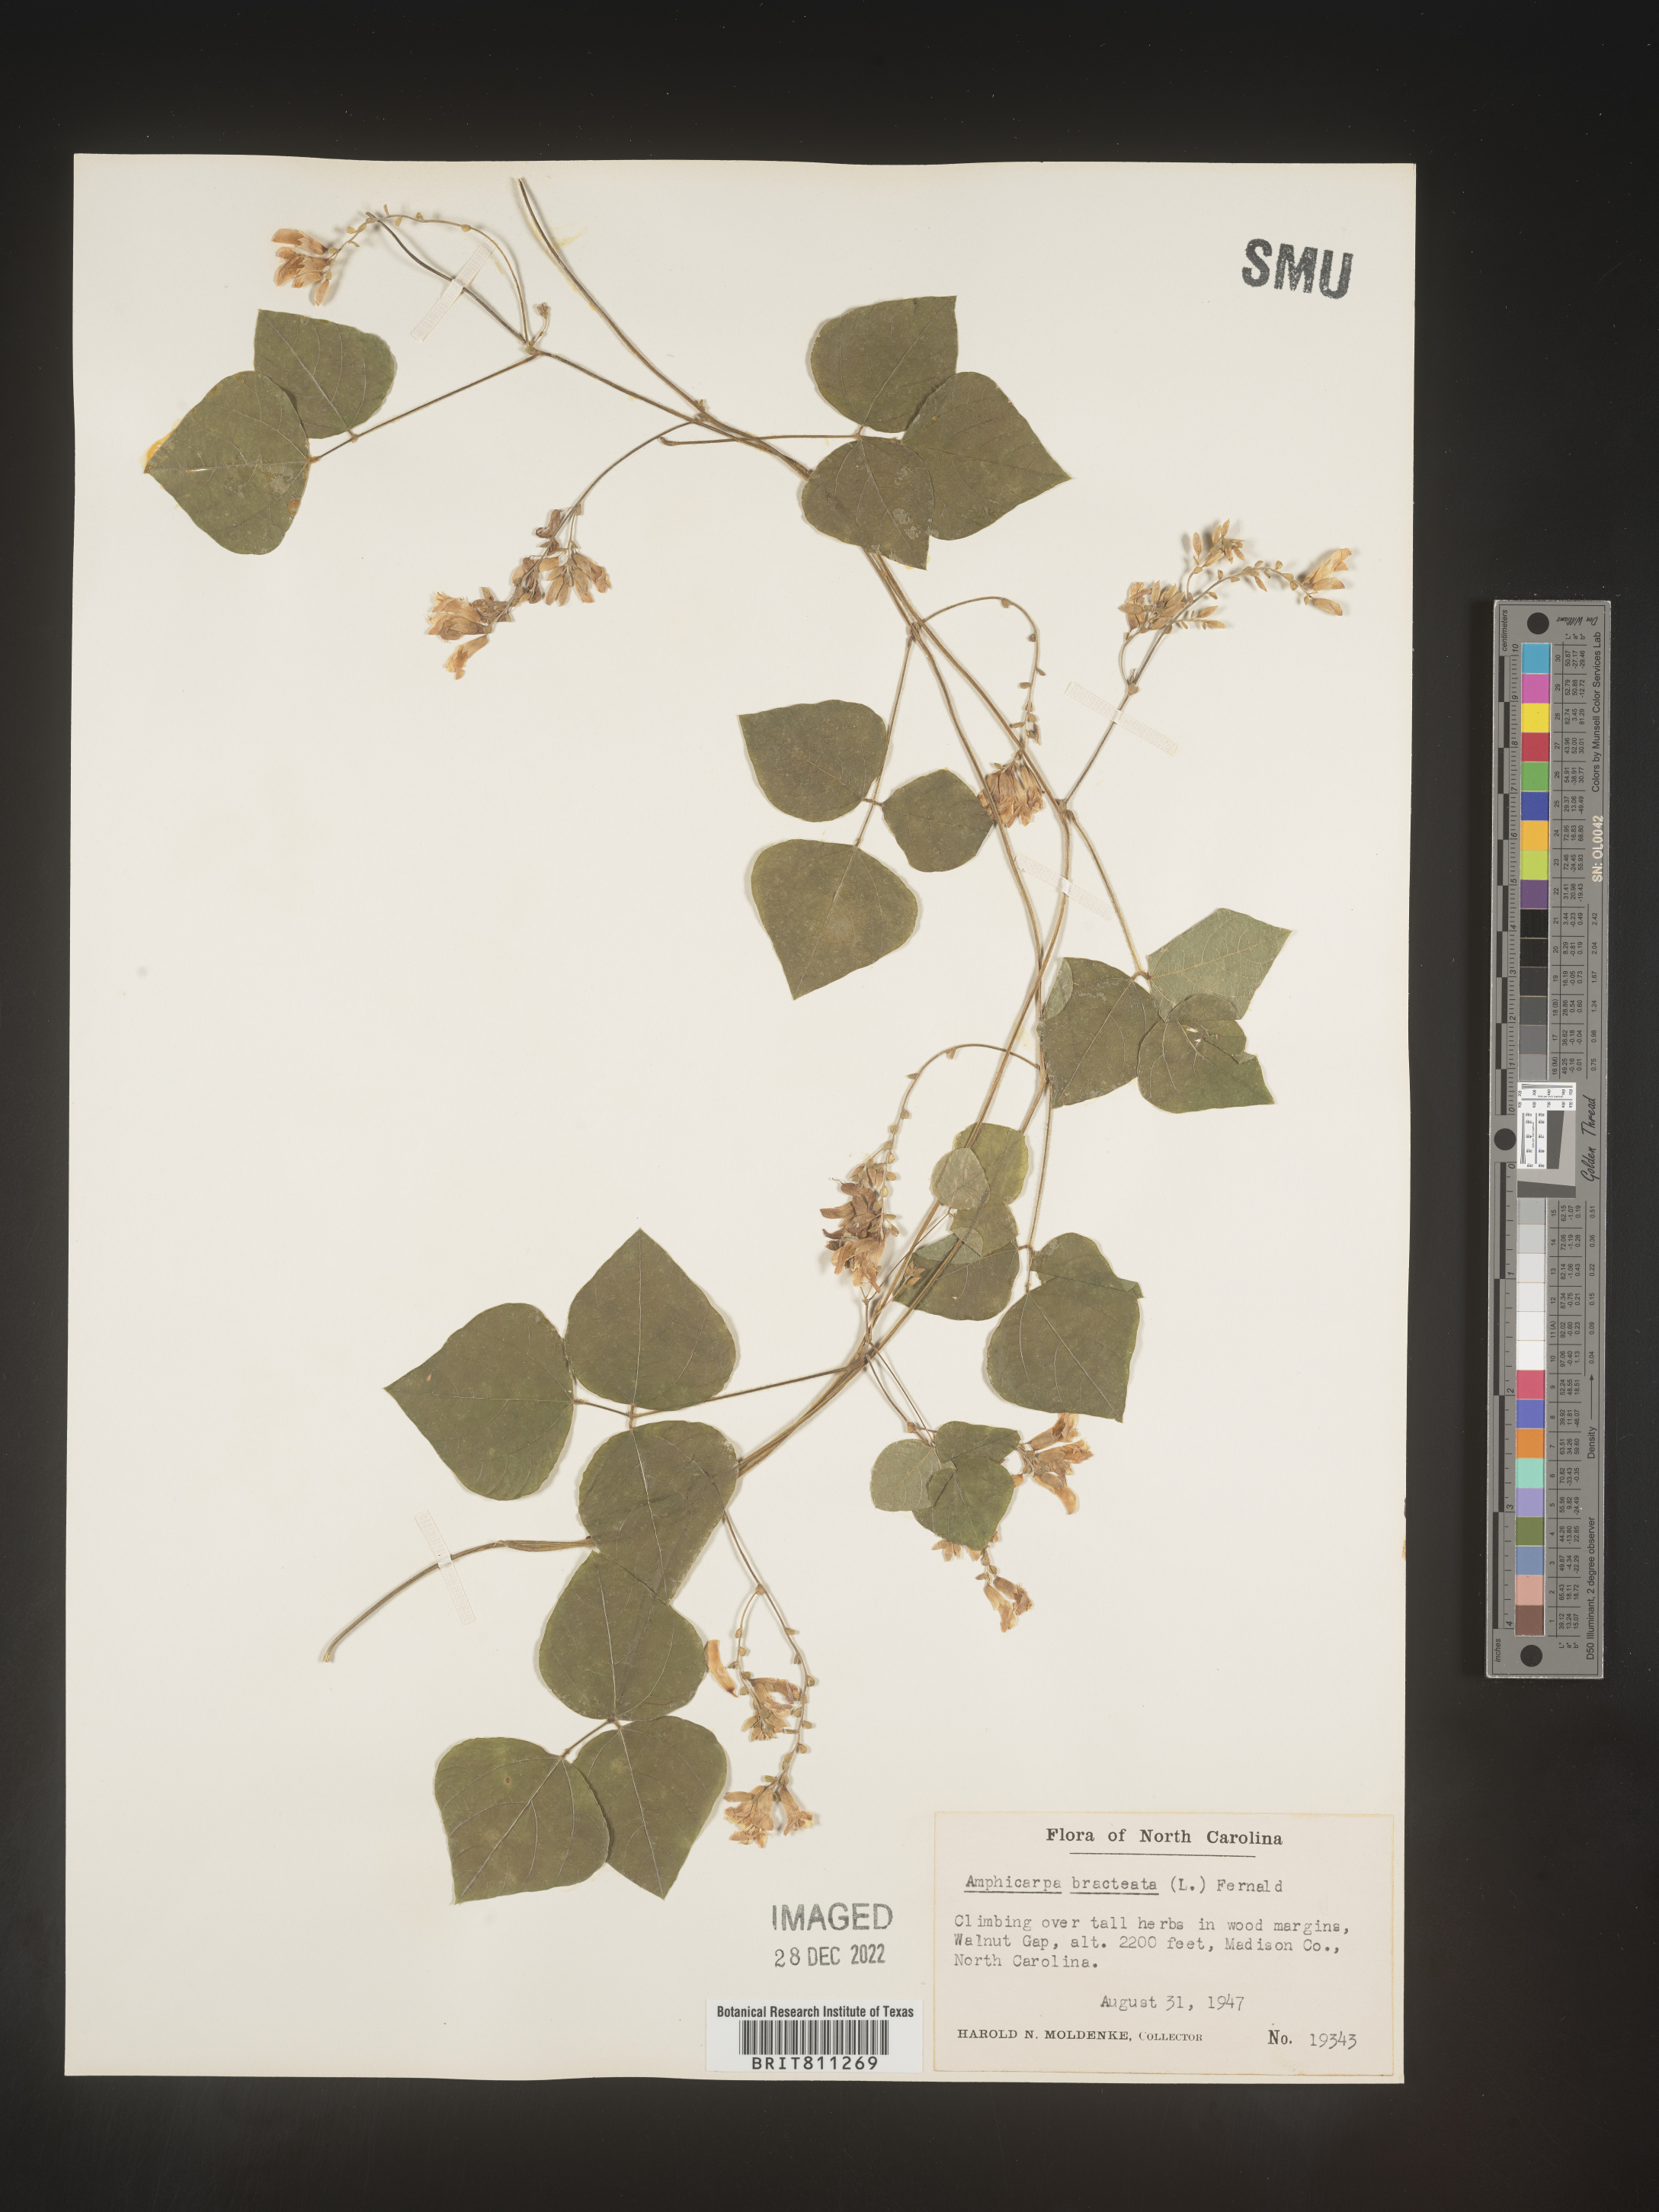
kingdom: Plantae
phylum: Tracheophyta
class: Magnoliopsida
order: Fabales
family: Fabaceae
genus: Amphicarpaea
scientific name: Amphicarpaea bracteata
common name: American hog peanut
